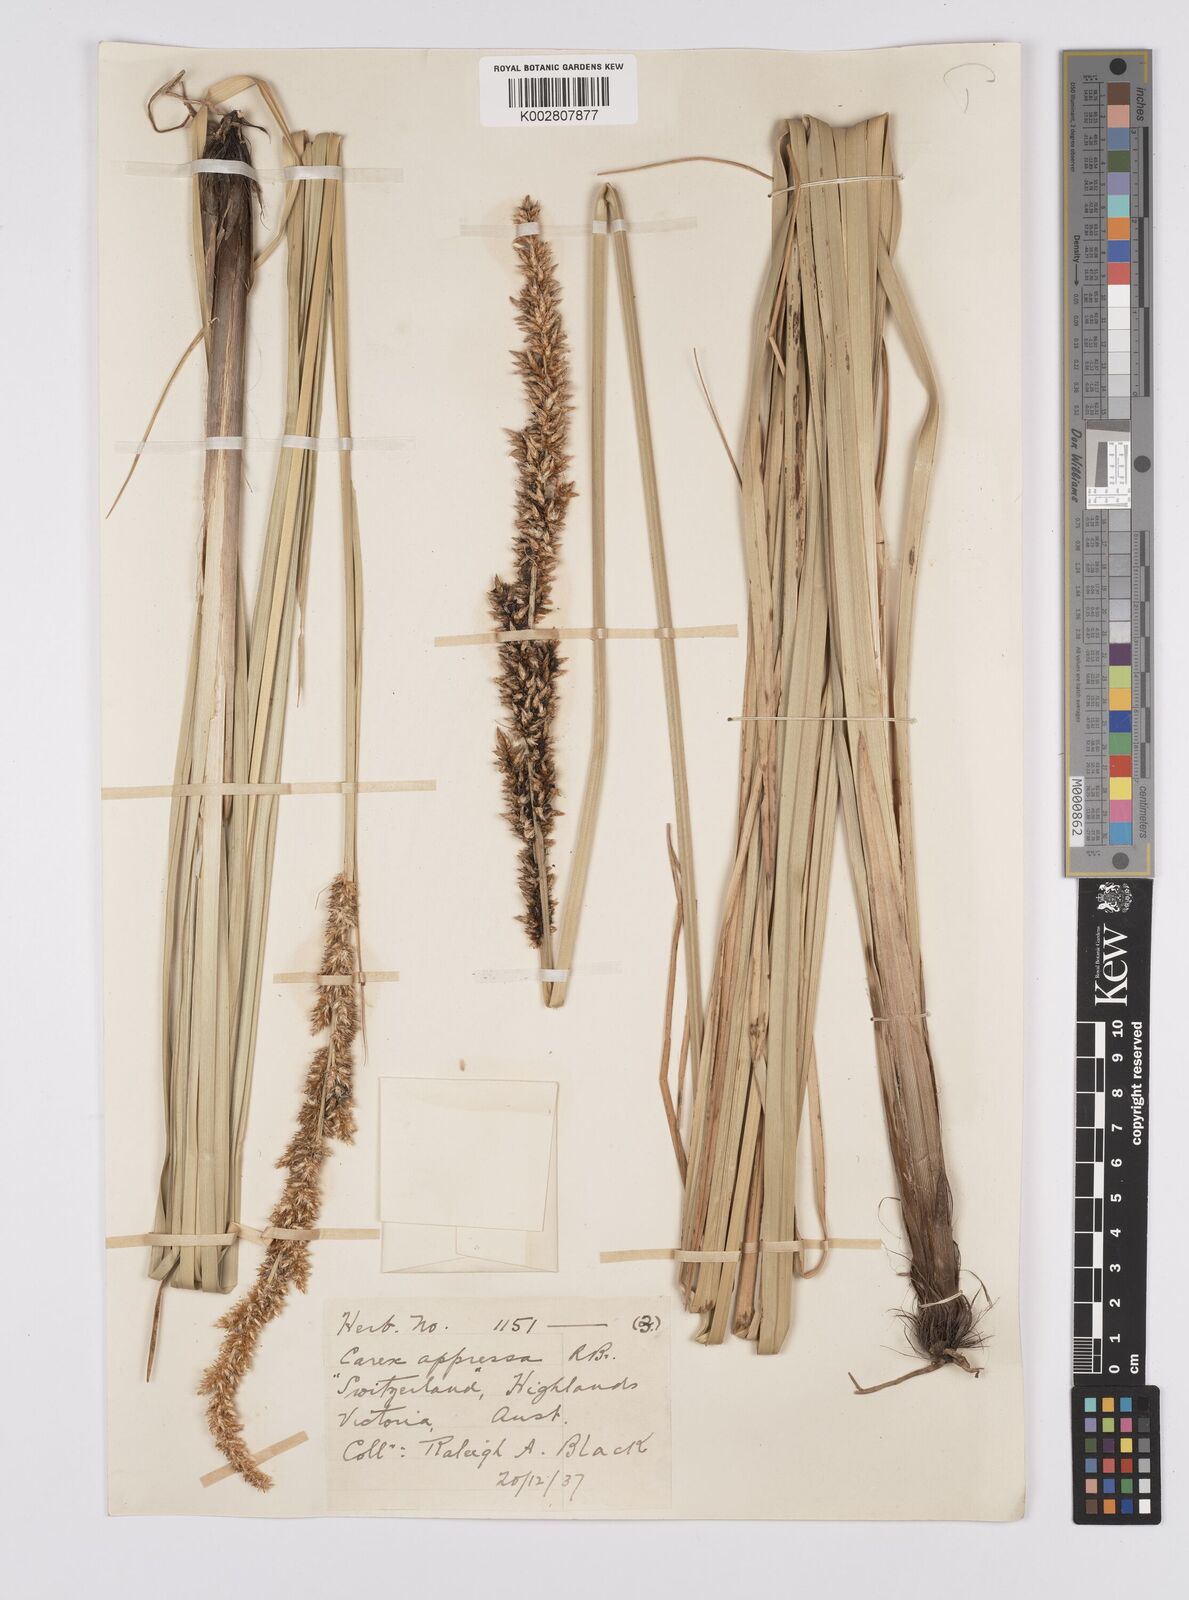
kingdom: Plantae
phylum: Tracheophyta
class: Liliopsida
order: Poales
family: Cyperaceae
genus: Carex
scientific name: Carex appressa
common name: Tussock sedge
